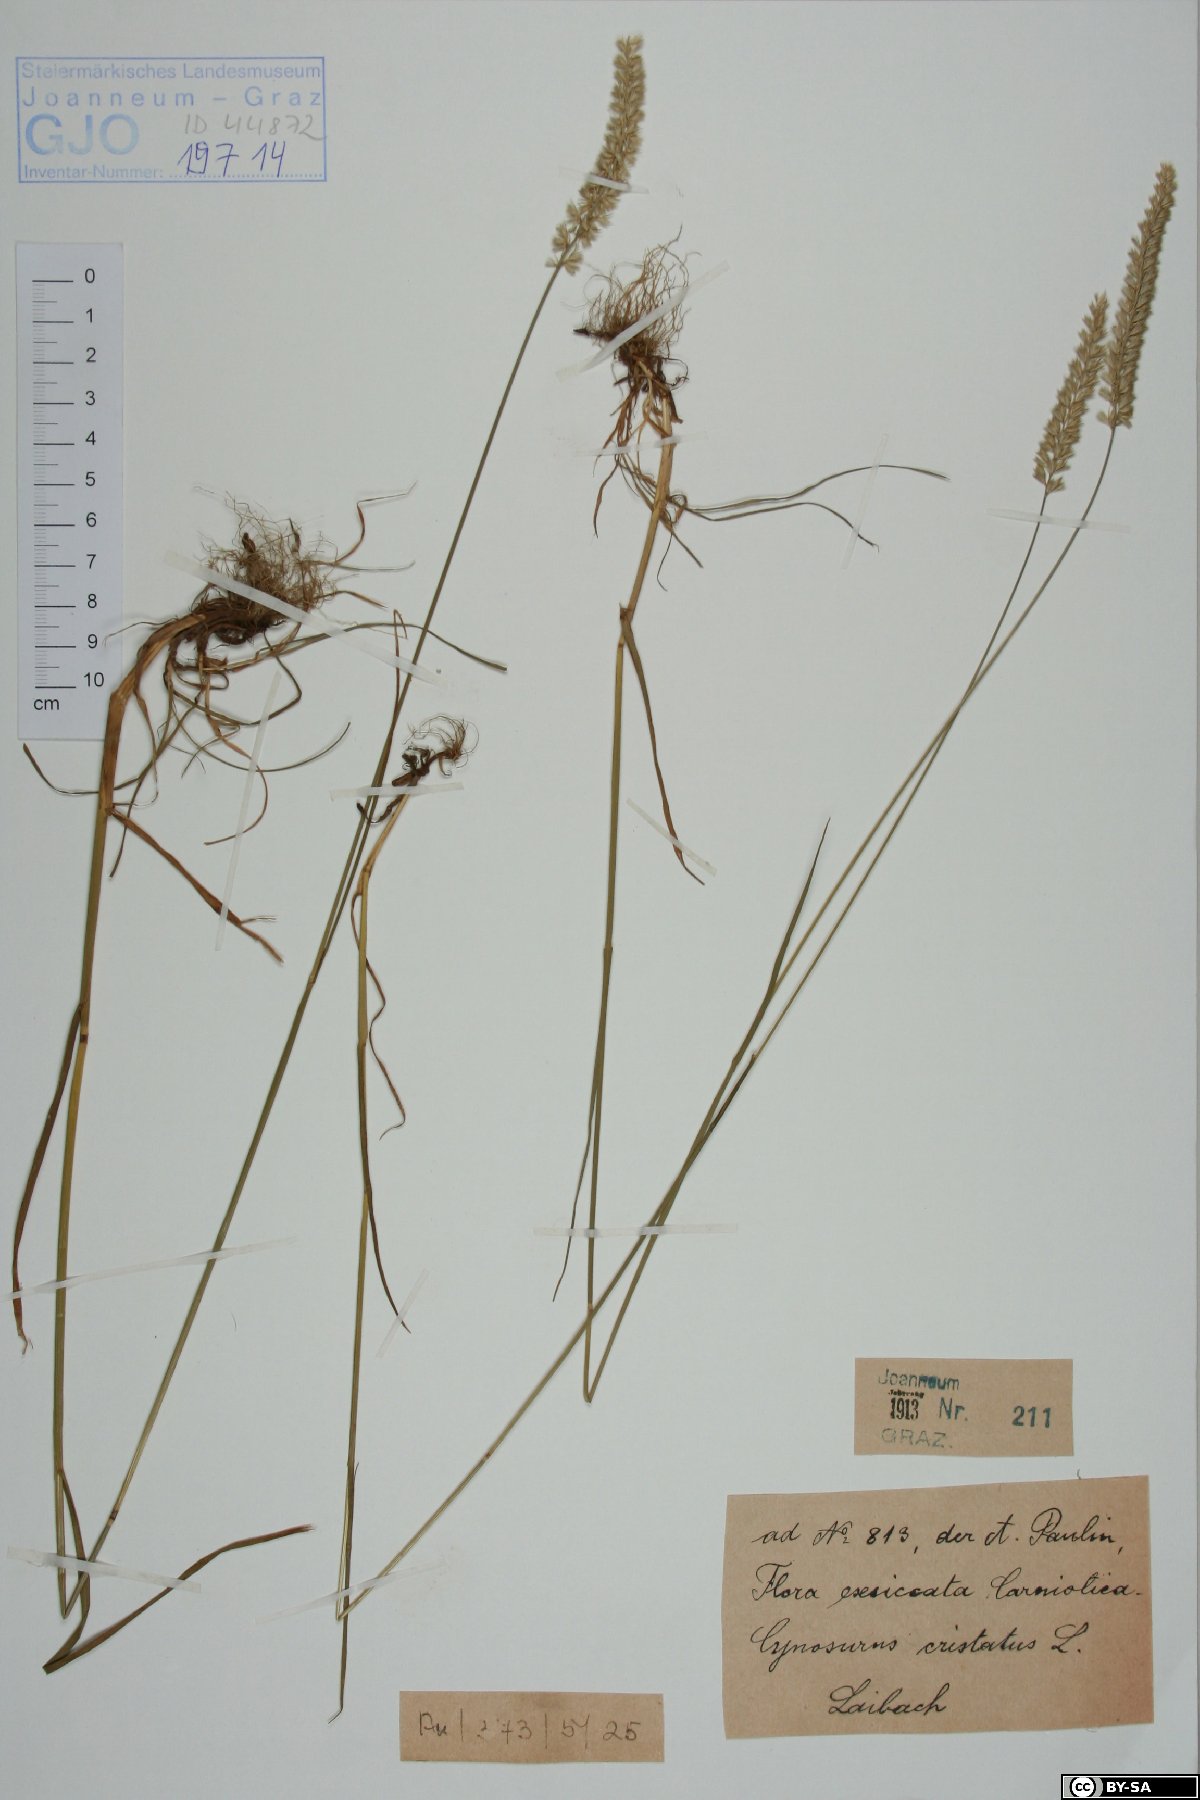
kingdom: Plantae
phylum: Tracheophyta
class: Liliopsida
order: Poales
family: Poaceae
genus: Cynosurus
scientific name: Cynosurus cristatus
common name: Crested dog's-tail
